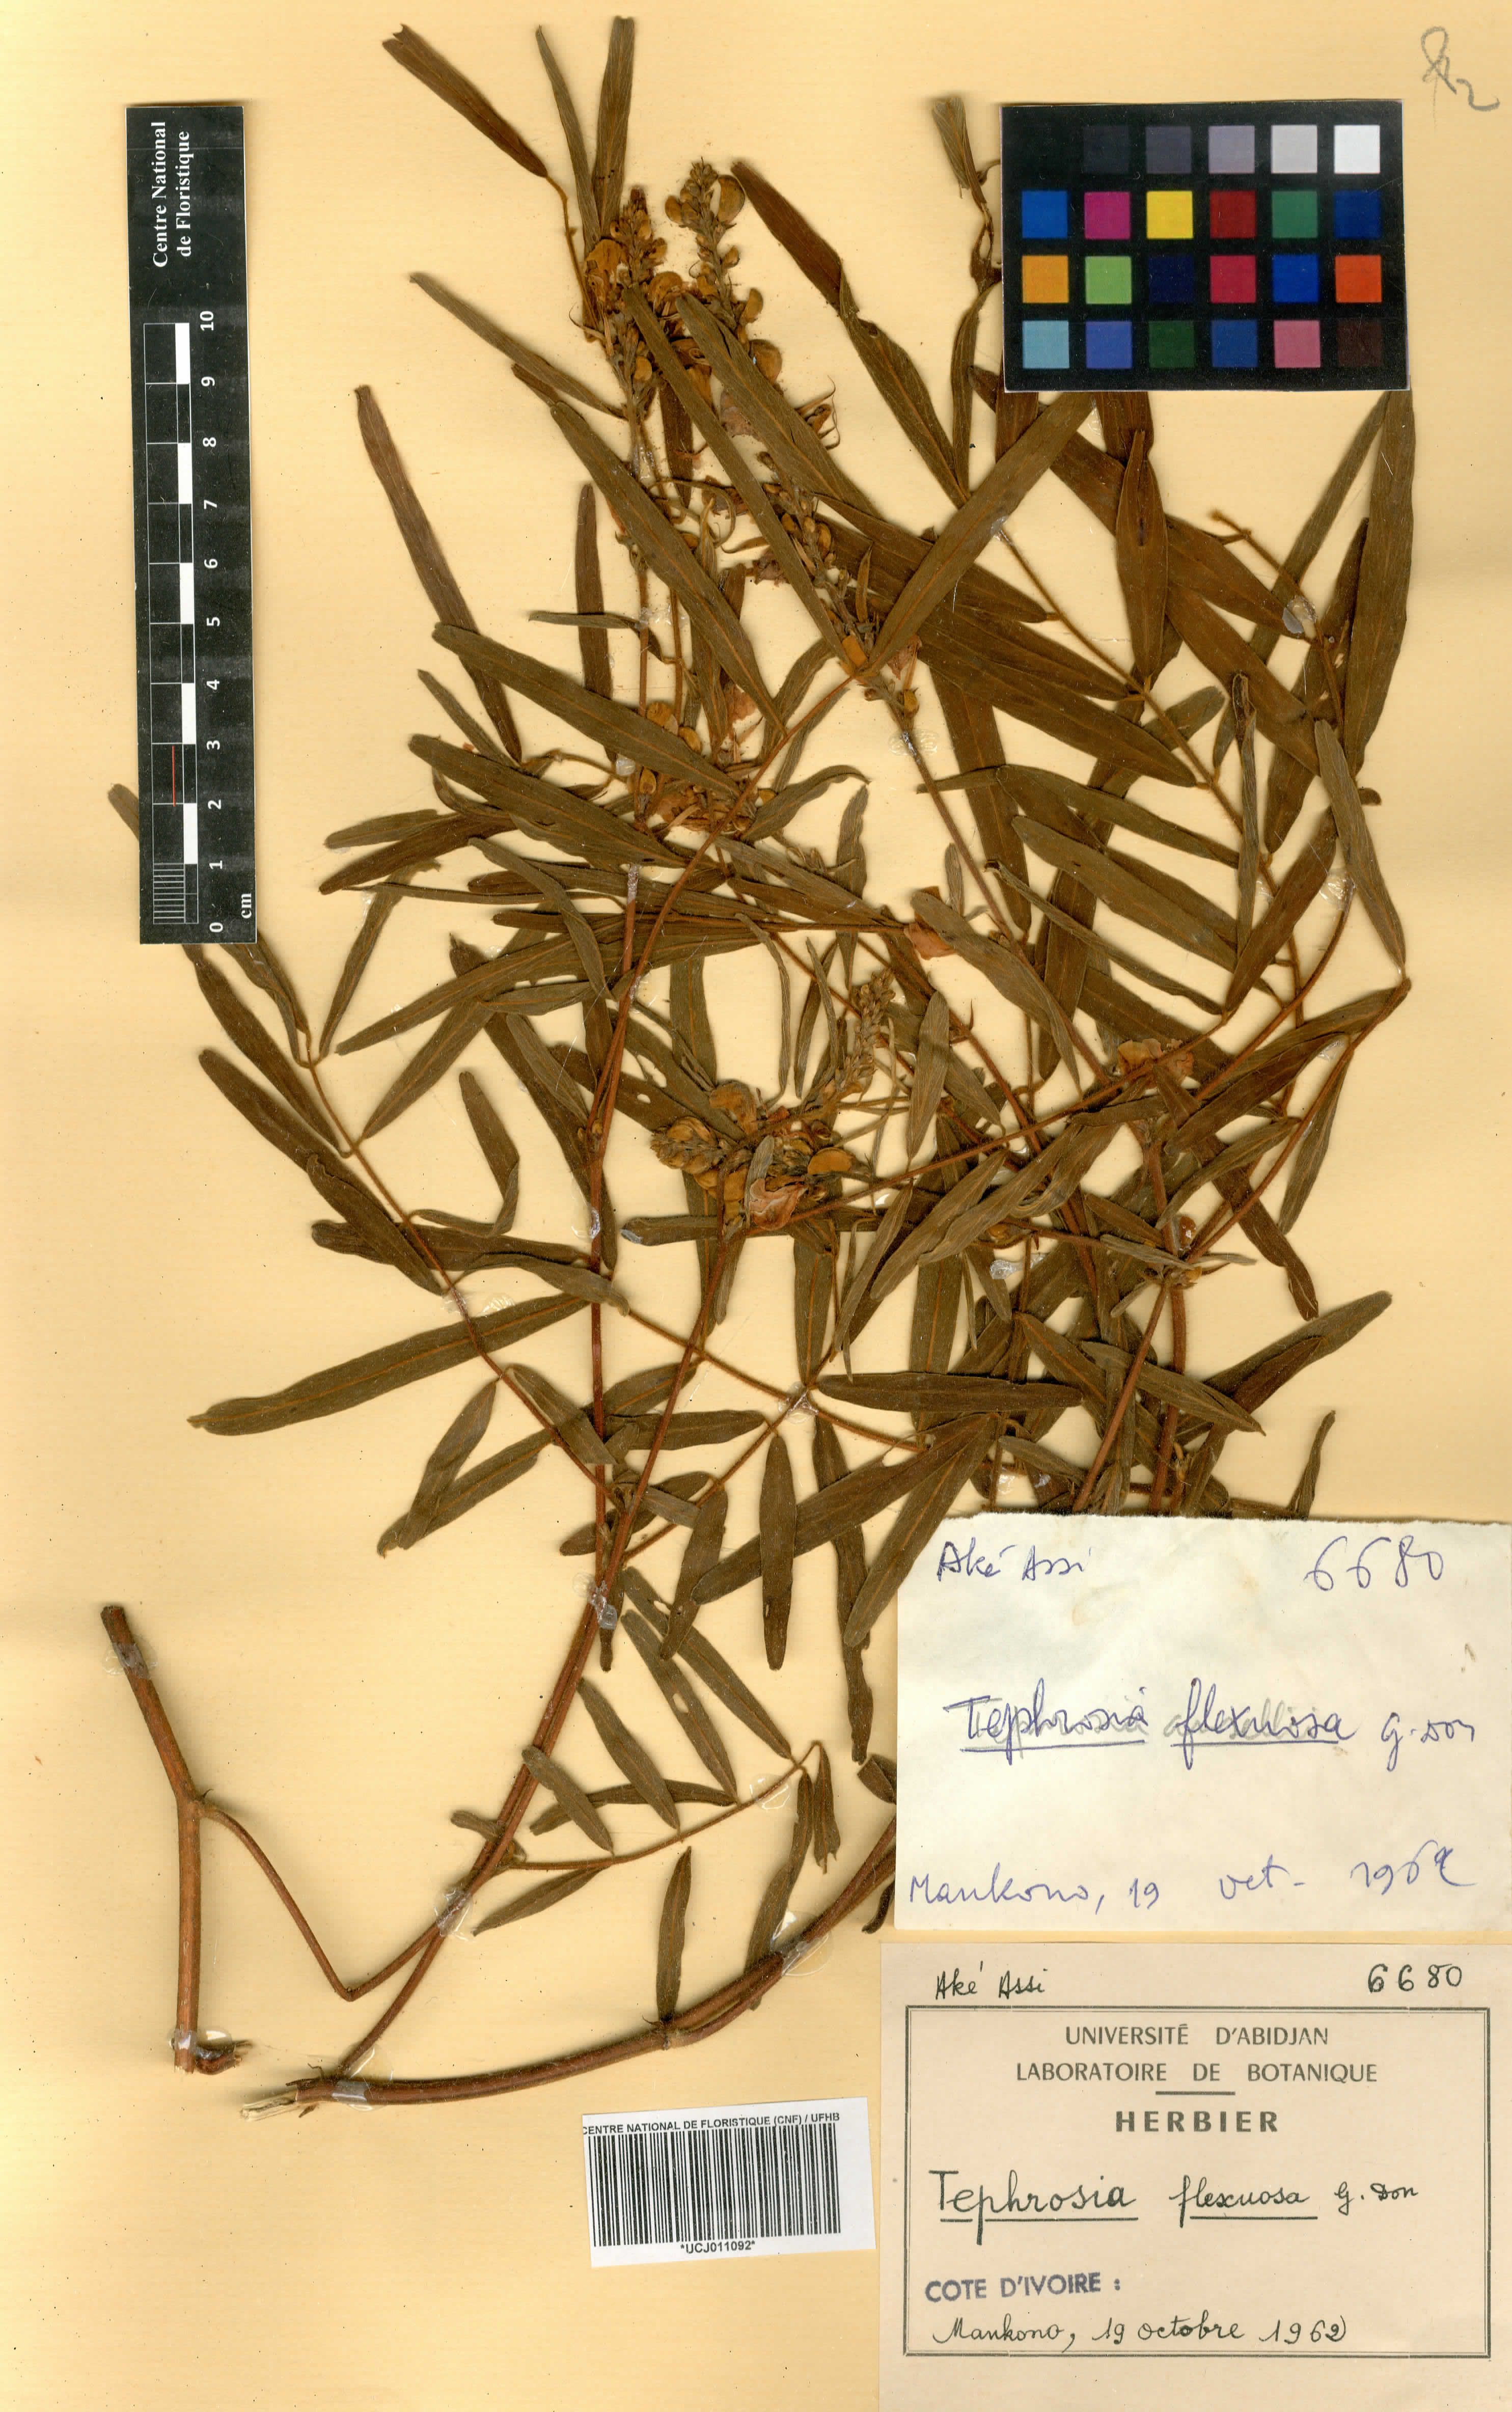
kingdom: Plantae
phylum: Tracheophyta
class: Magnoliopsida
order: Fabales
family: Fabaceae
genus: Tephrosia
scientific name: Tephrosia flexuosa
